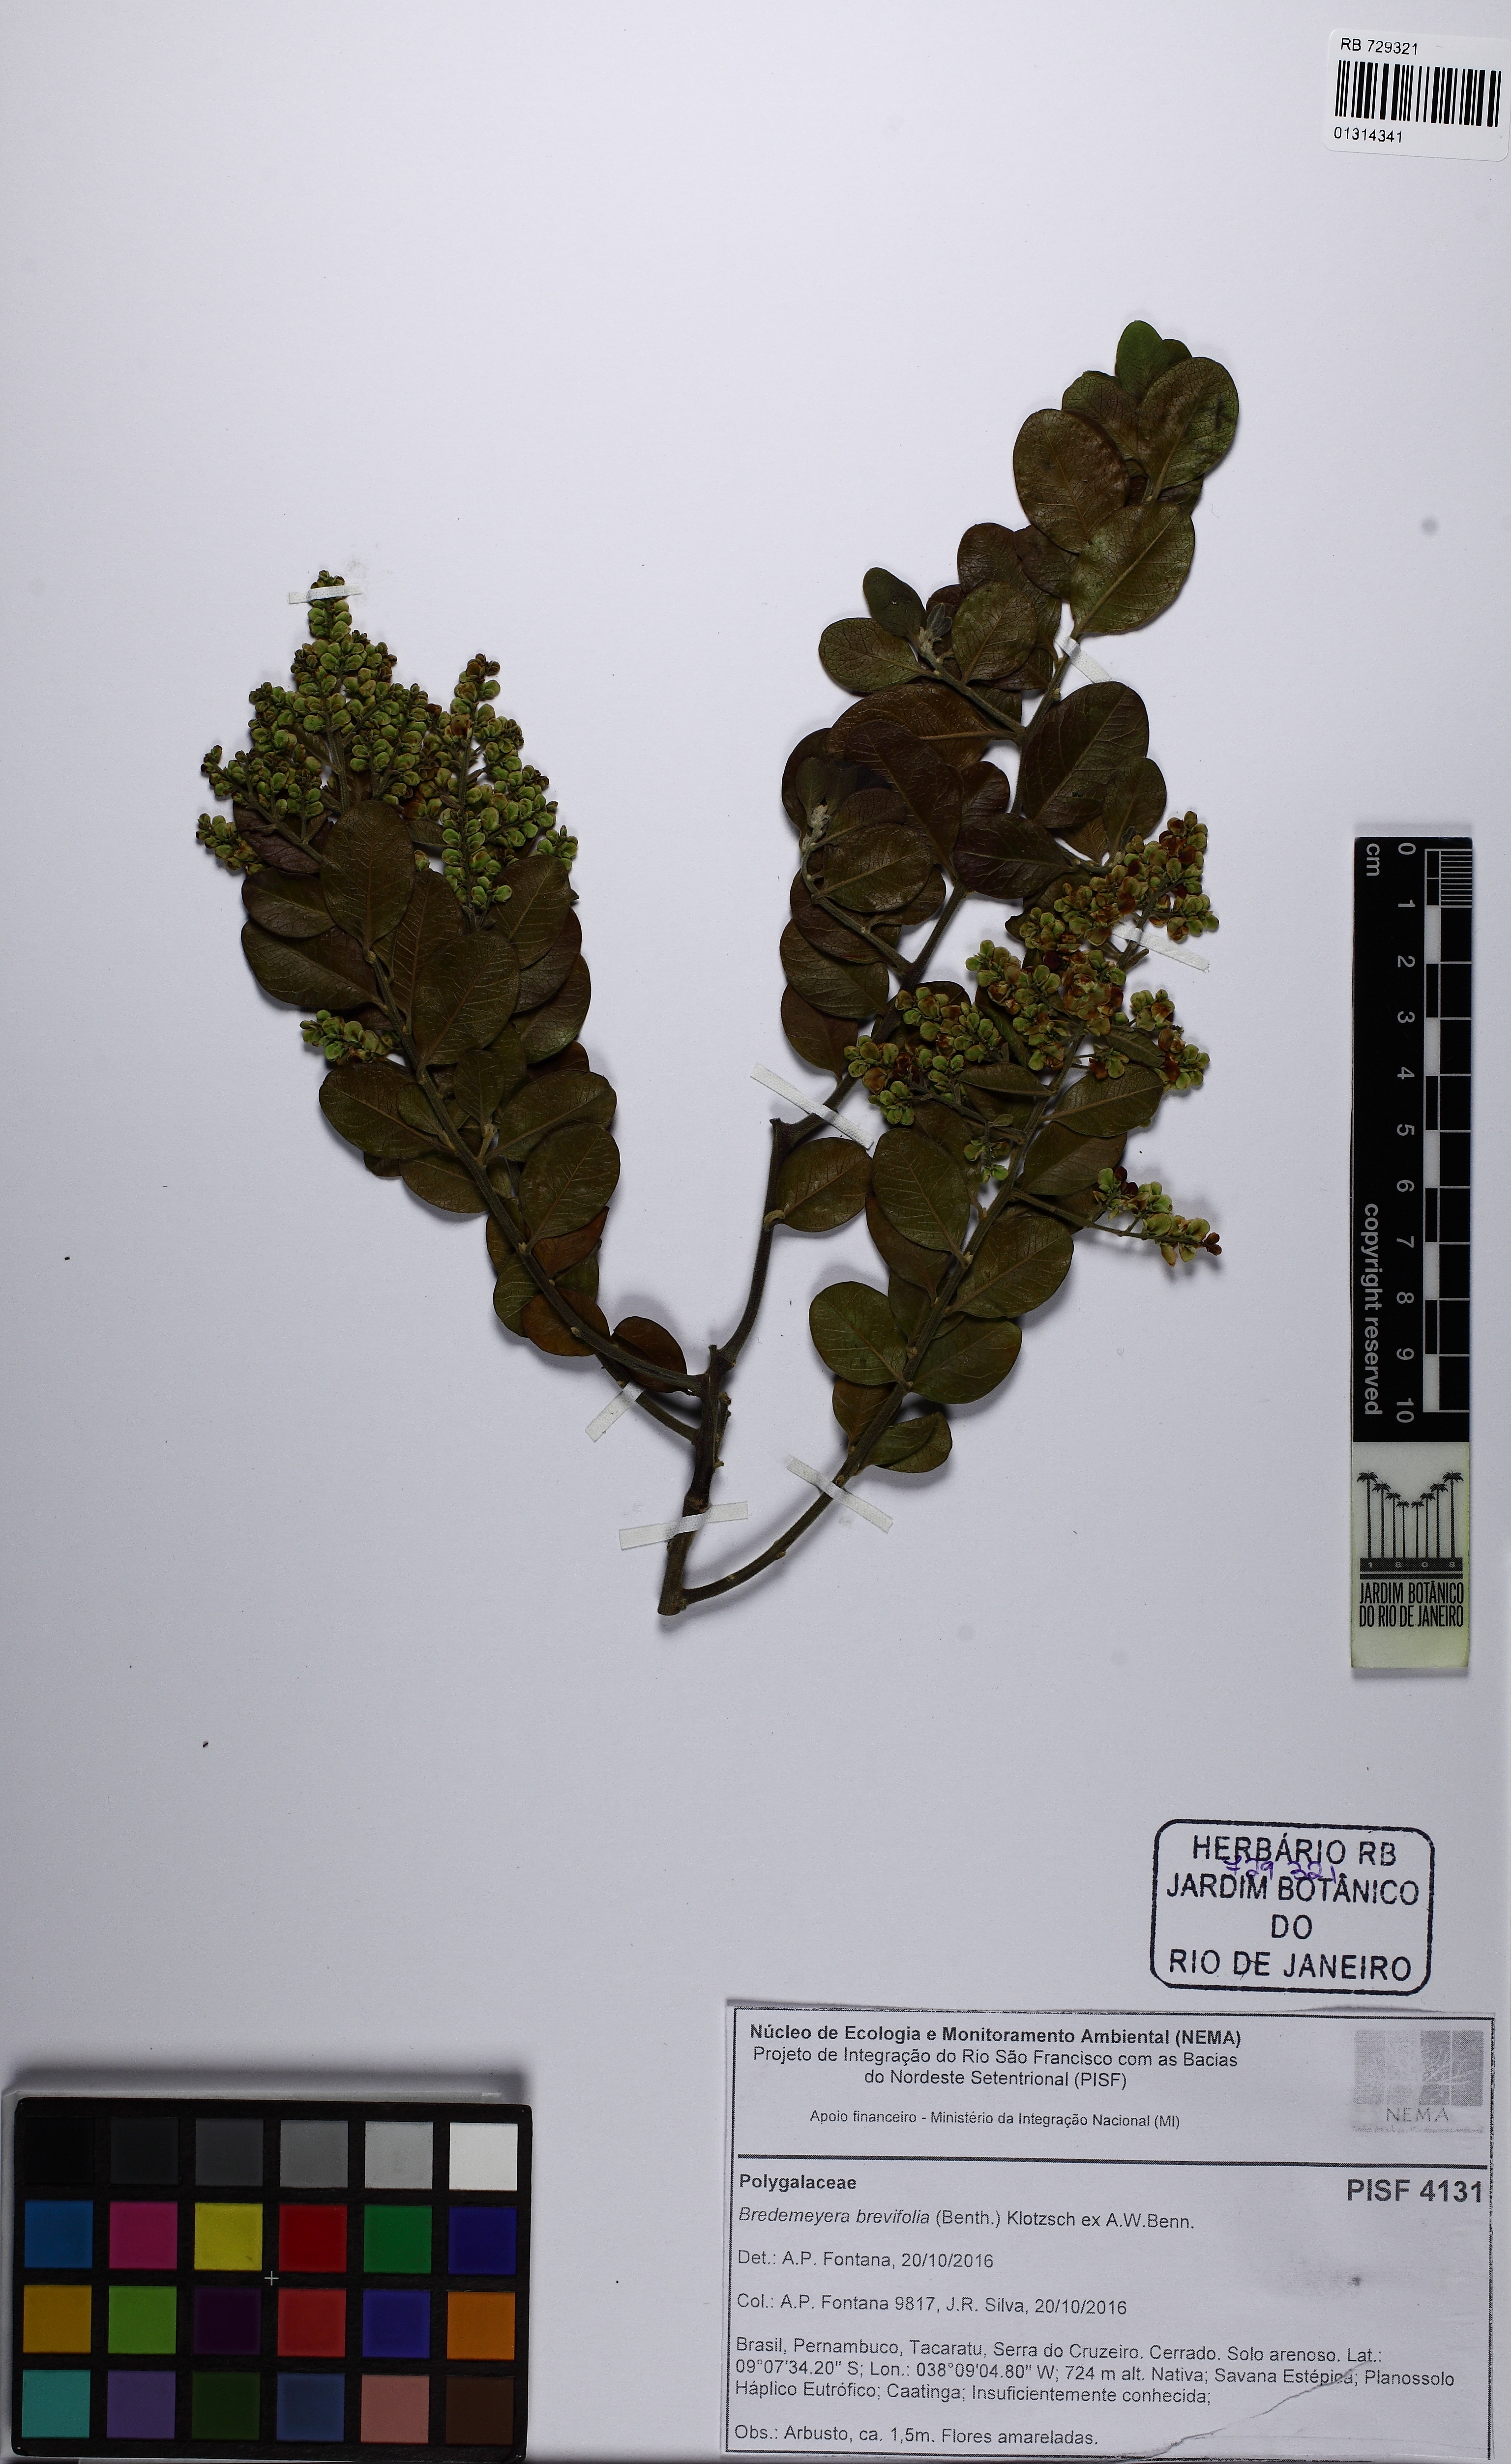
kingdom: Plantae
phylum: Tracheophyta
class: Magnoliopsida
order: Fabales
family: Polygalaceae
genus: Bredemeyera
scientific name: Bredemeyera hebeclada
